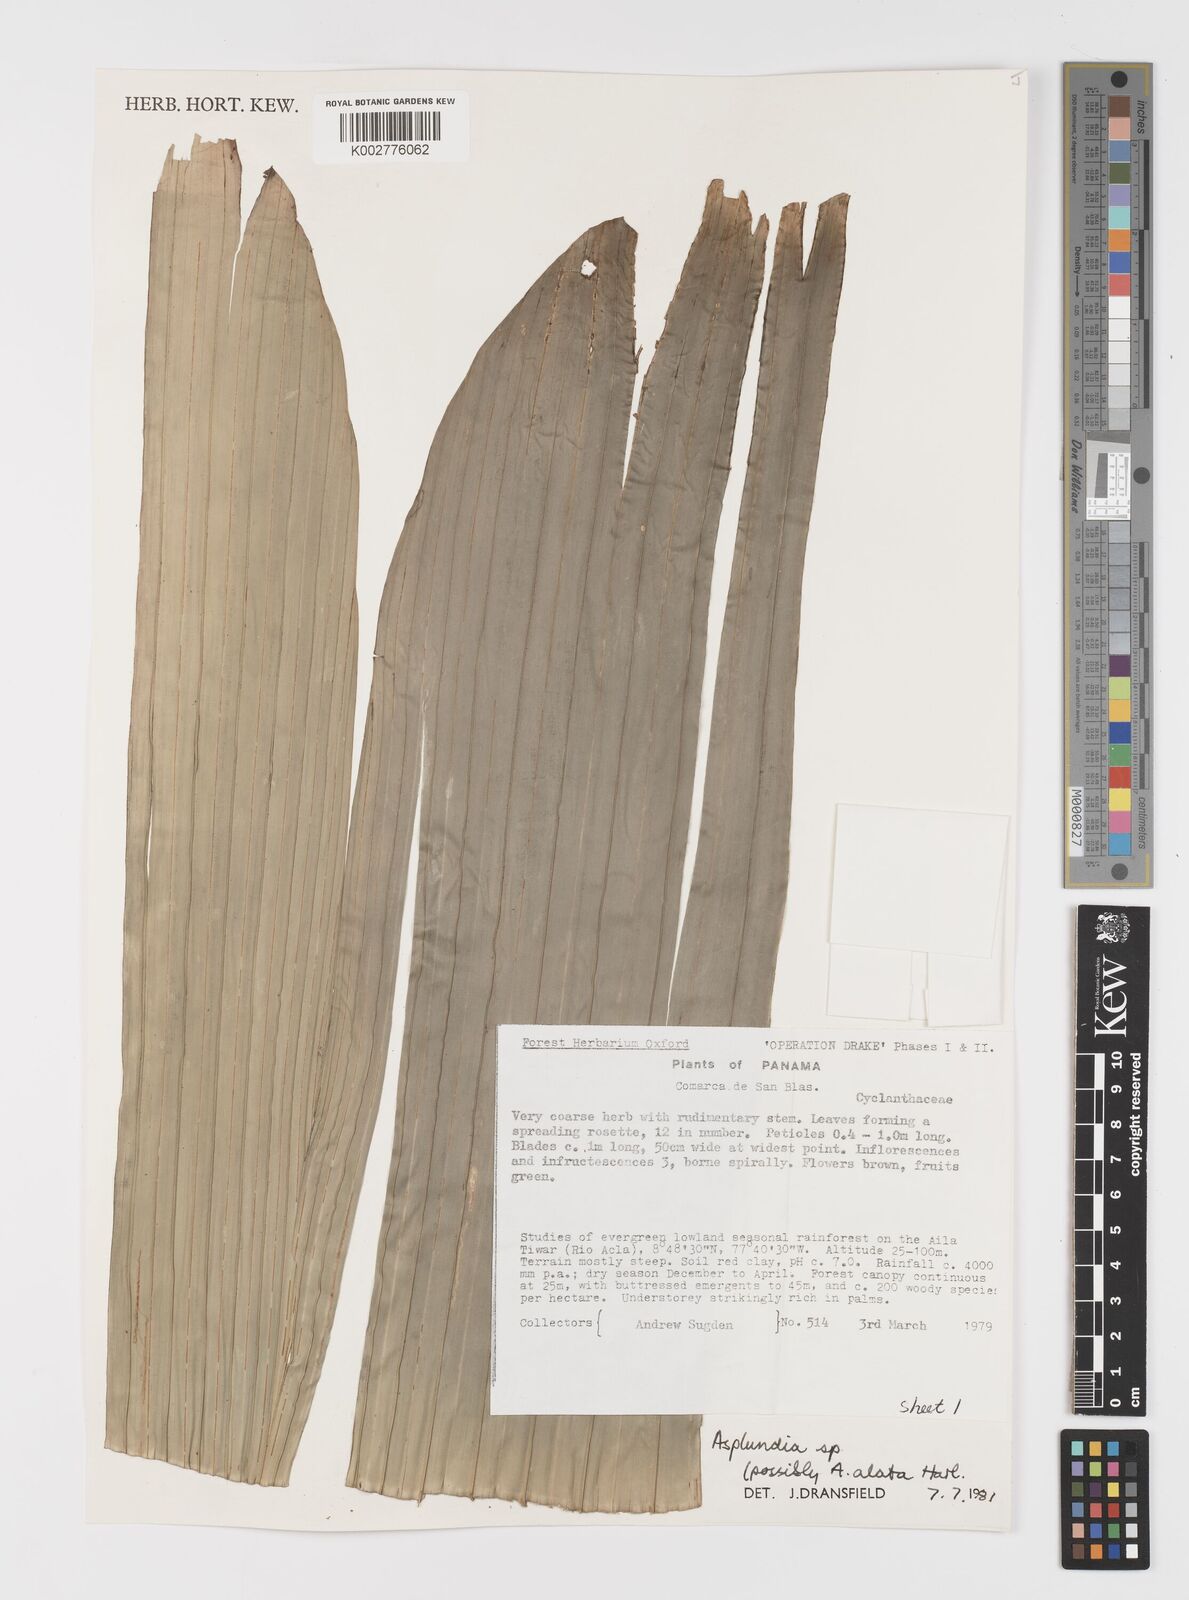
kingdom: Plantae
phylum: Tracheophyta
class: Liliopsida
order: Pandanales
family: Cyclanthaceae
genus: Asplundia
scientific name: Asplundia
